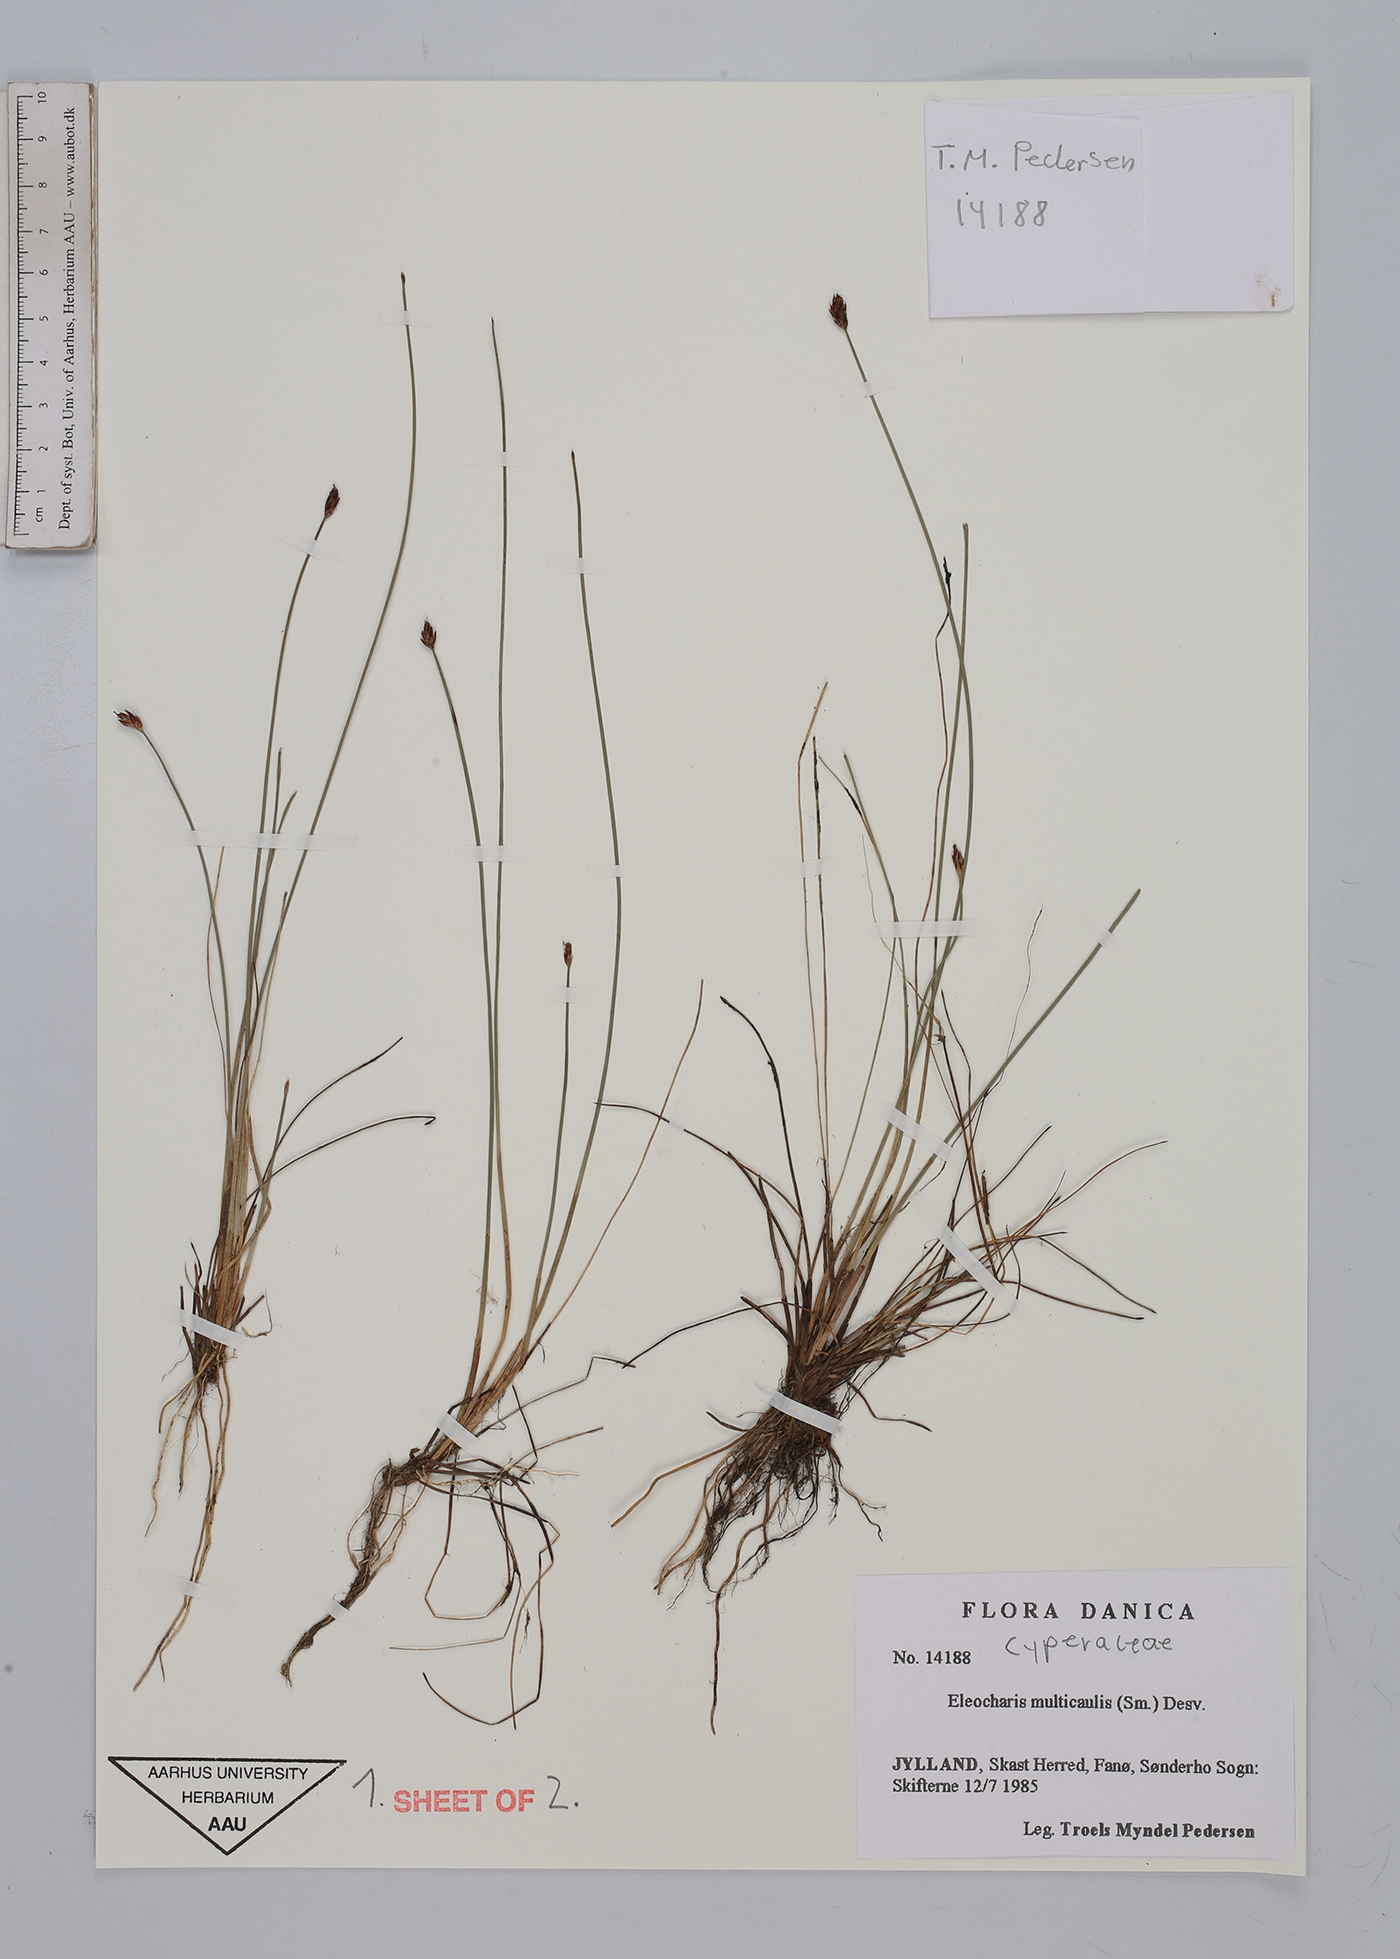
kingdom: Plantae
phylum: Tracheophyta
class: Liliopsida
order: Poales
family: Cyperaceae
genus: Eleocharis
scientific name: Eleocharis multicaulis
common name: Many-stalked spike-rush
